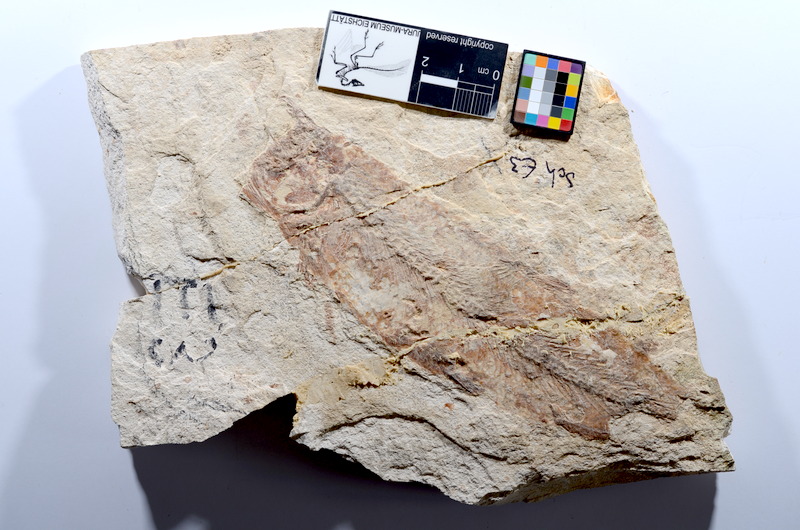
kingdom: Animalia
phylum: Chordata
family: Ascalaboidae
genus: Tharsis
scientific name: Tharsis dubius
